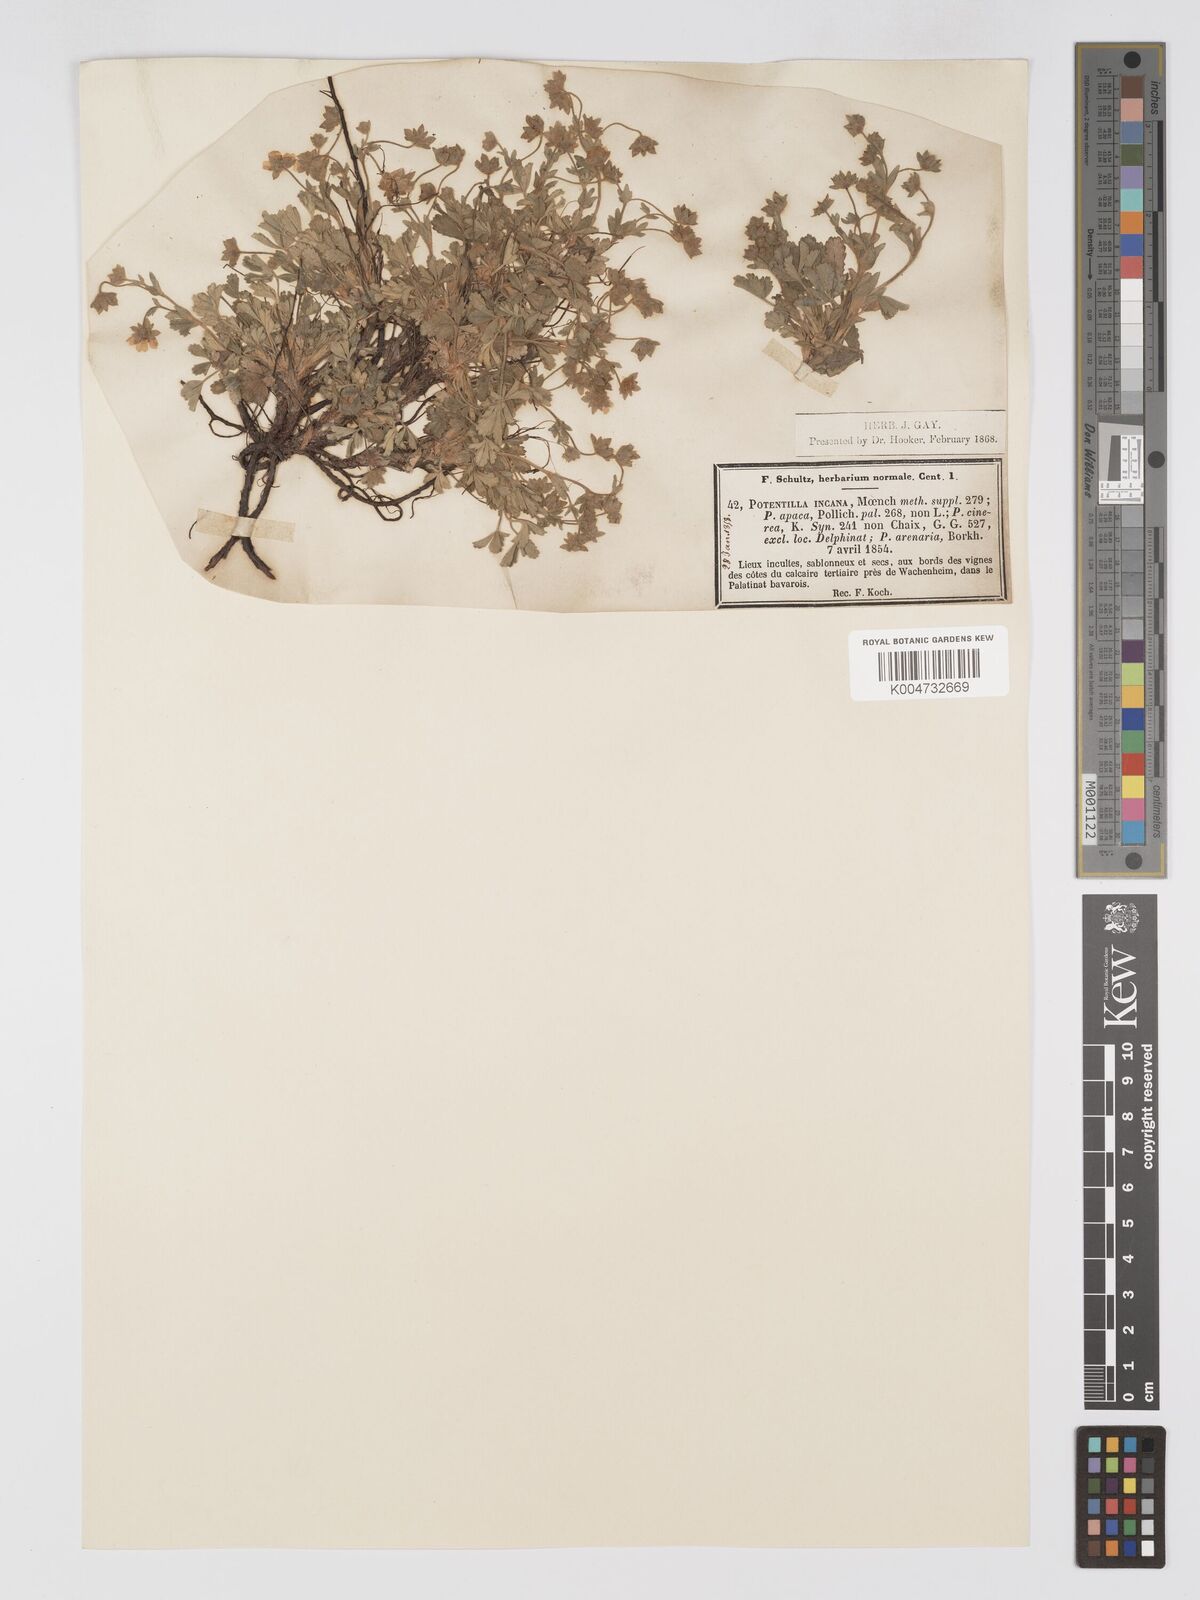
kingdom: Plantae
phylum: Tracheophyta
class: Magnoliopsida
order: Rosales
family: Rosaceae
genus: Potentilla
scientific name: Potentilla cinerea
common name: Ashy cinquefoil
